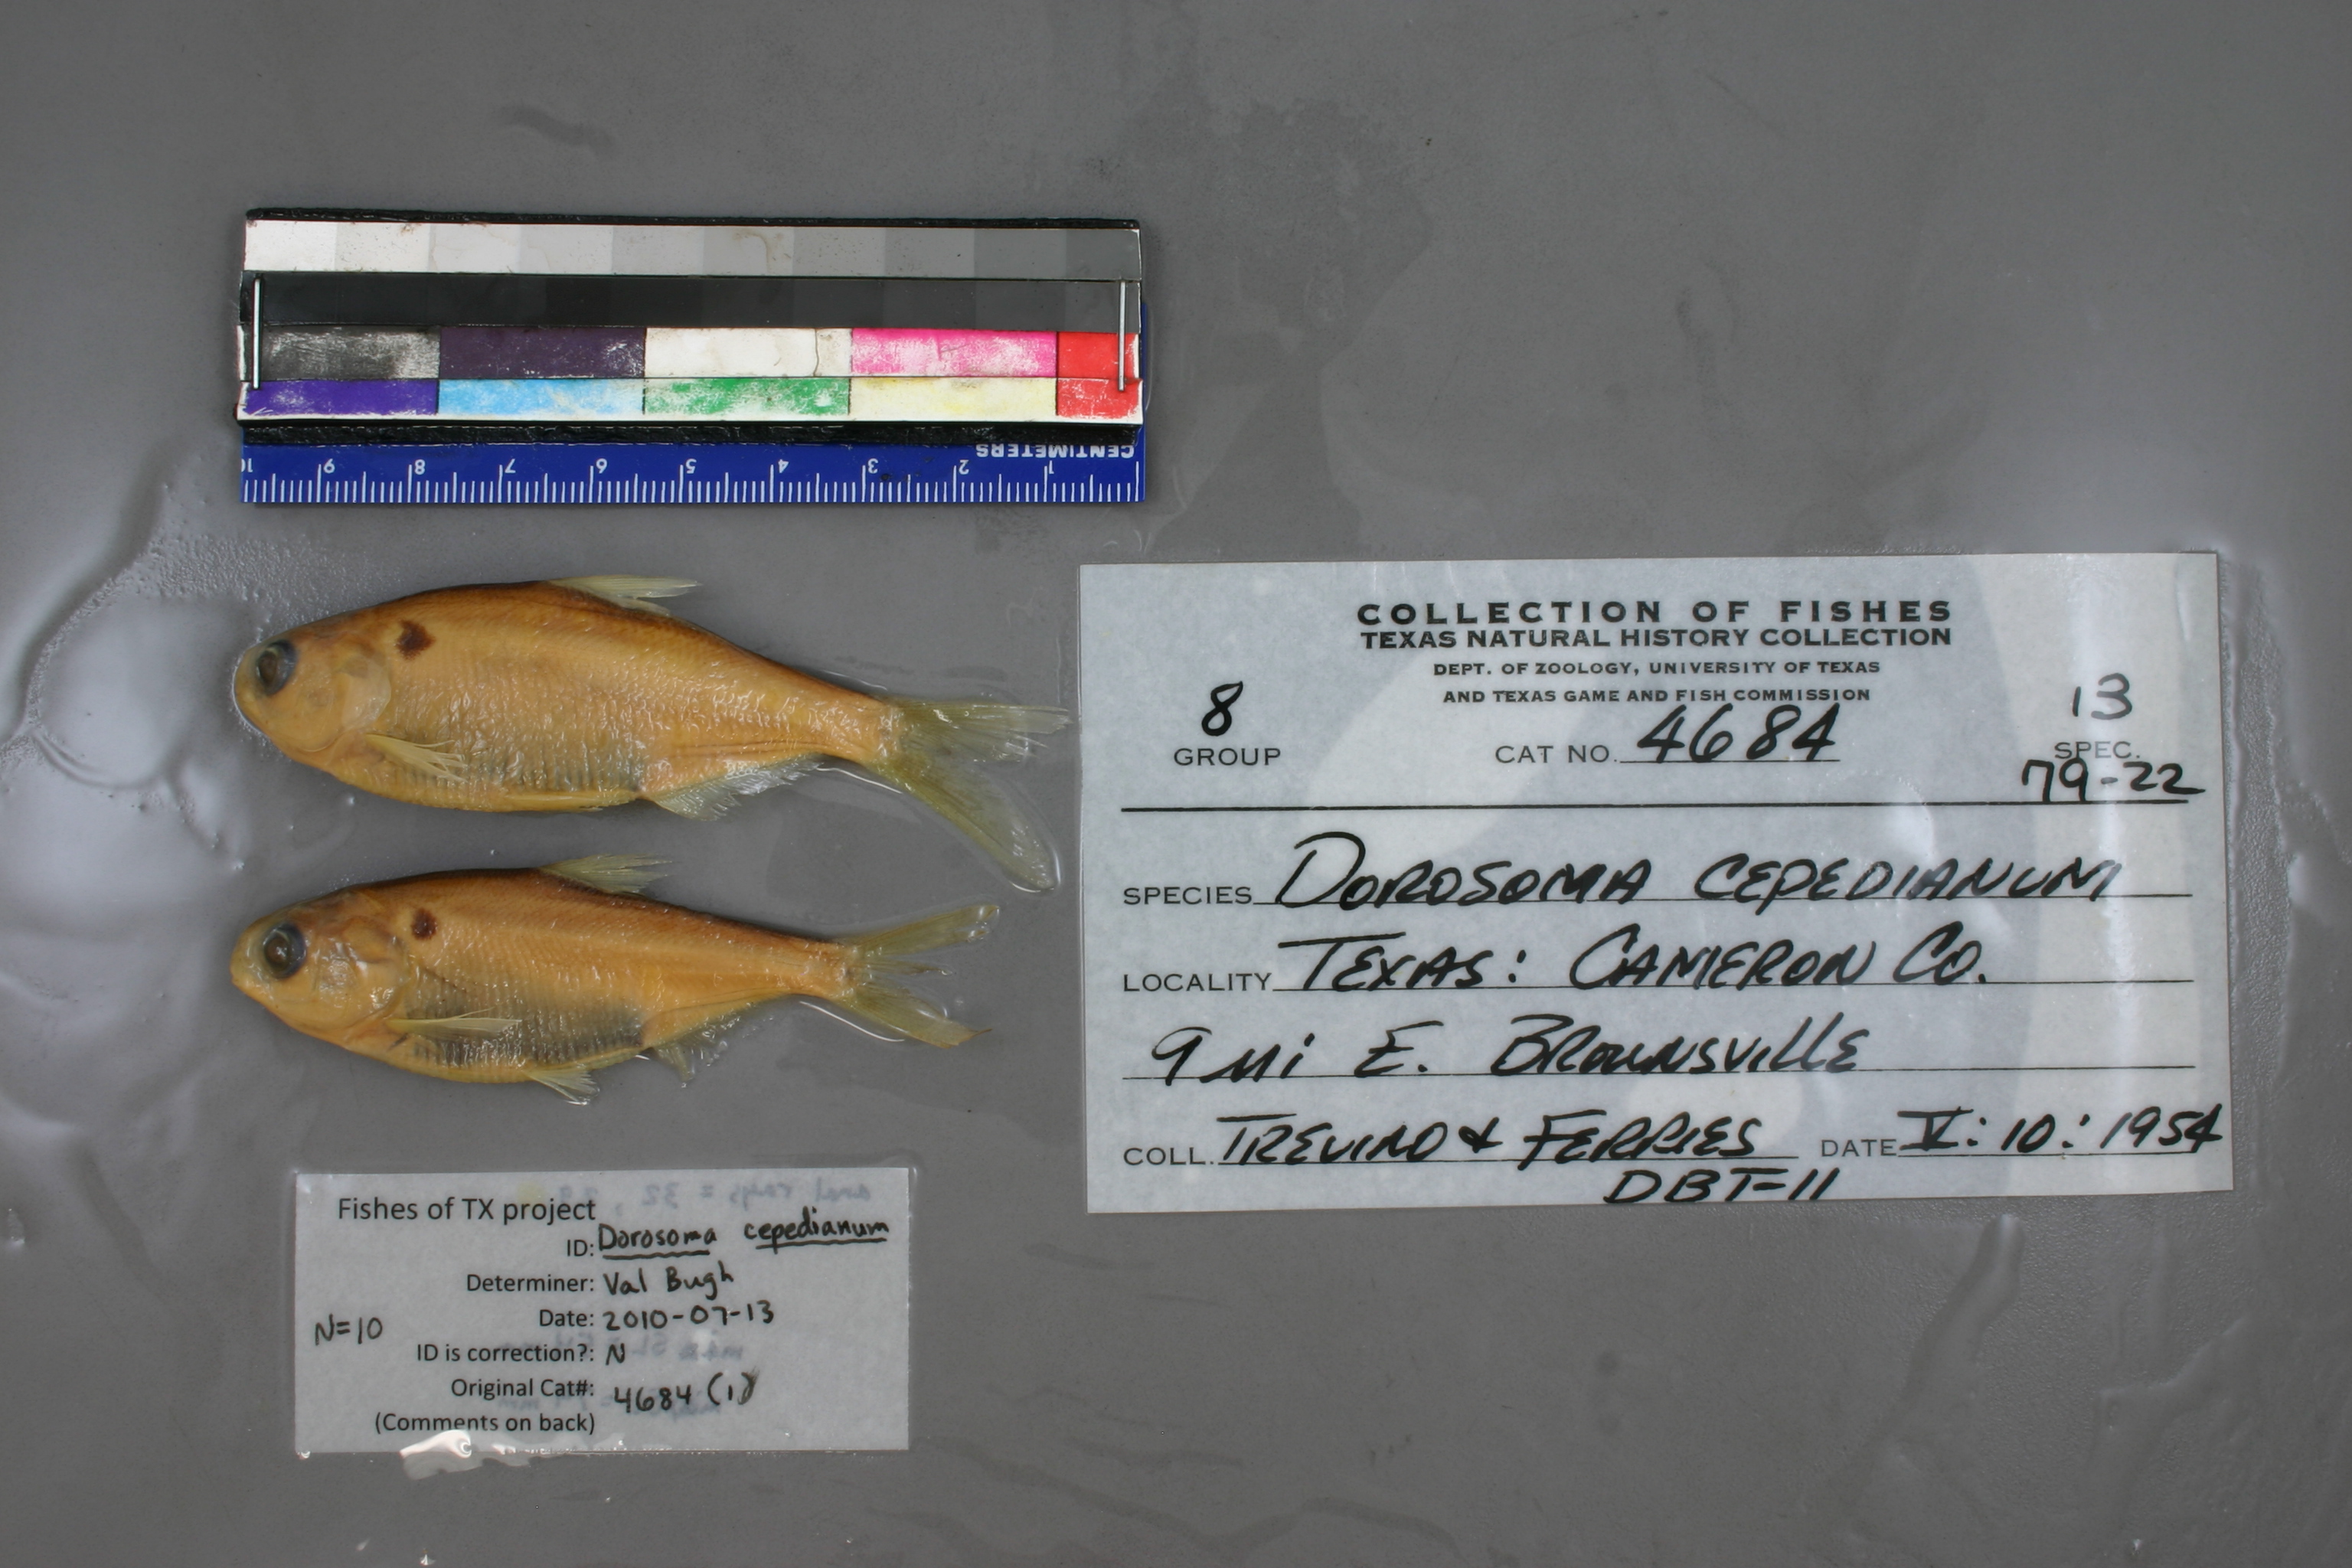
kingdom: Animalia
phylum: Chordata
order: Clupeiformes
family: Clupeidae
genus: Dorosoma
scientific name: Dorosoma cepedianum
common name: Gizzard shad
